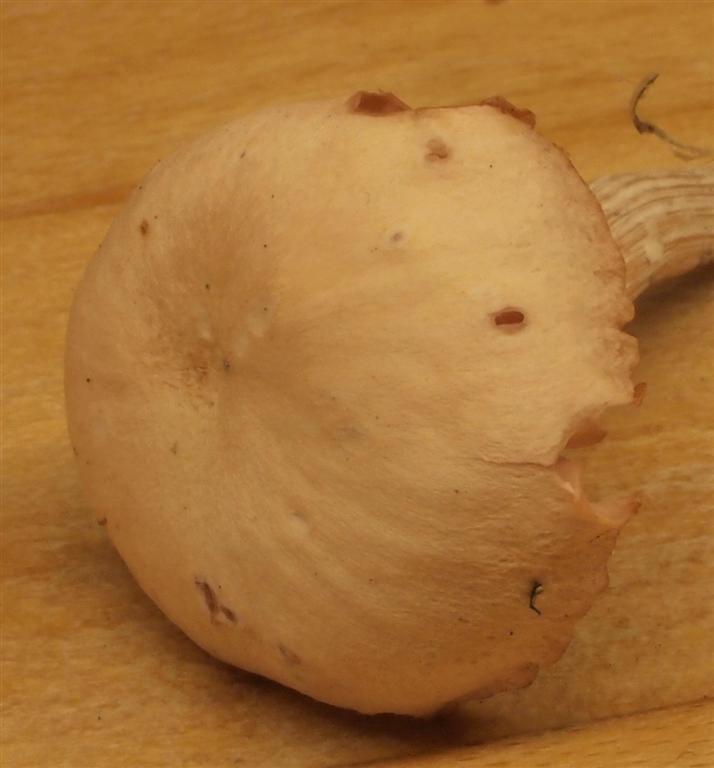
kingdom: Fungi
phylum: Basidiomycota
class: Agaricomycetes
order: Agaricales
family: Hydnangiaceae
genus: Laccaria
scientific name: Laccaria proxima
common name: stor ametysthat
